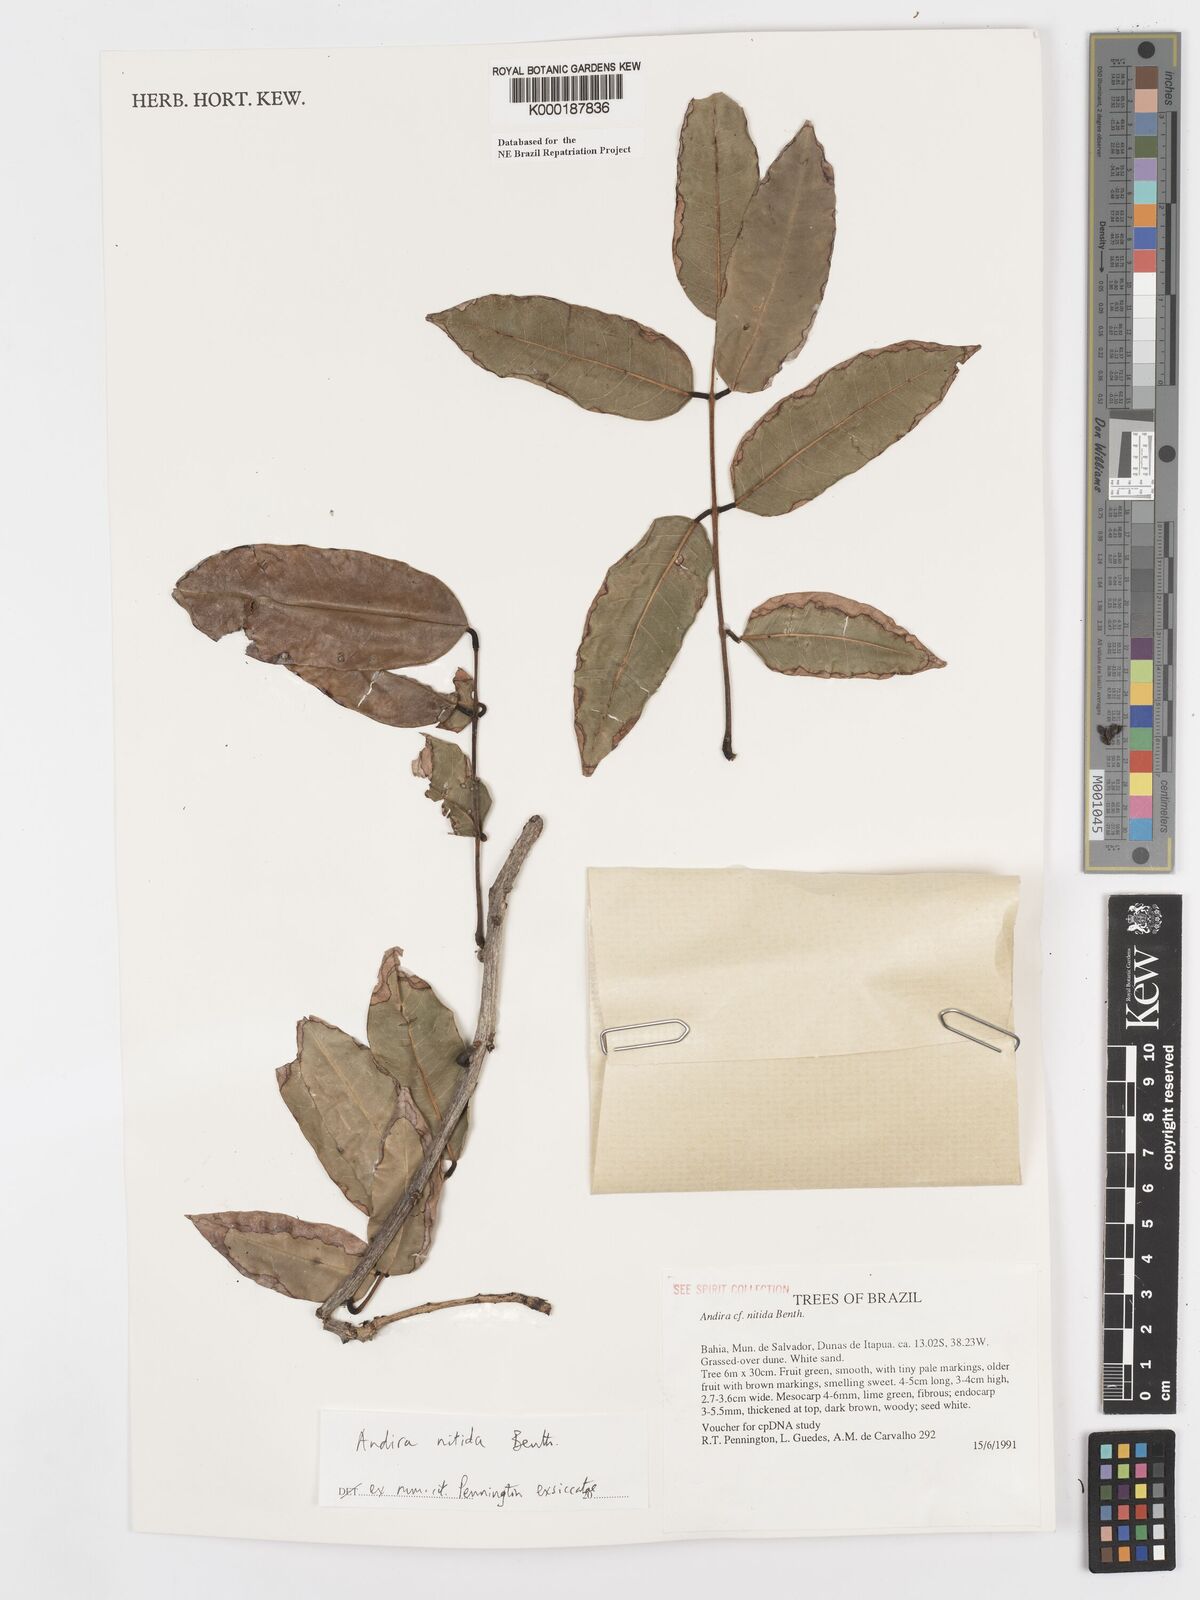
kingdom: Plantae
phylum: Tracheophyta
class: Magnoliopsida
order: Fabales
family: Fabaceae
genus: Andira
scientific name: Andira nitida
